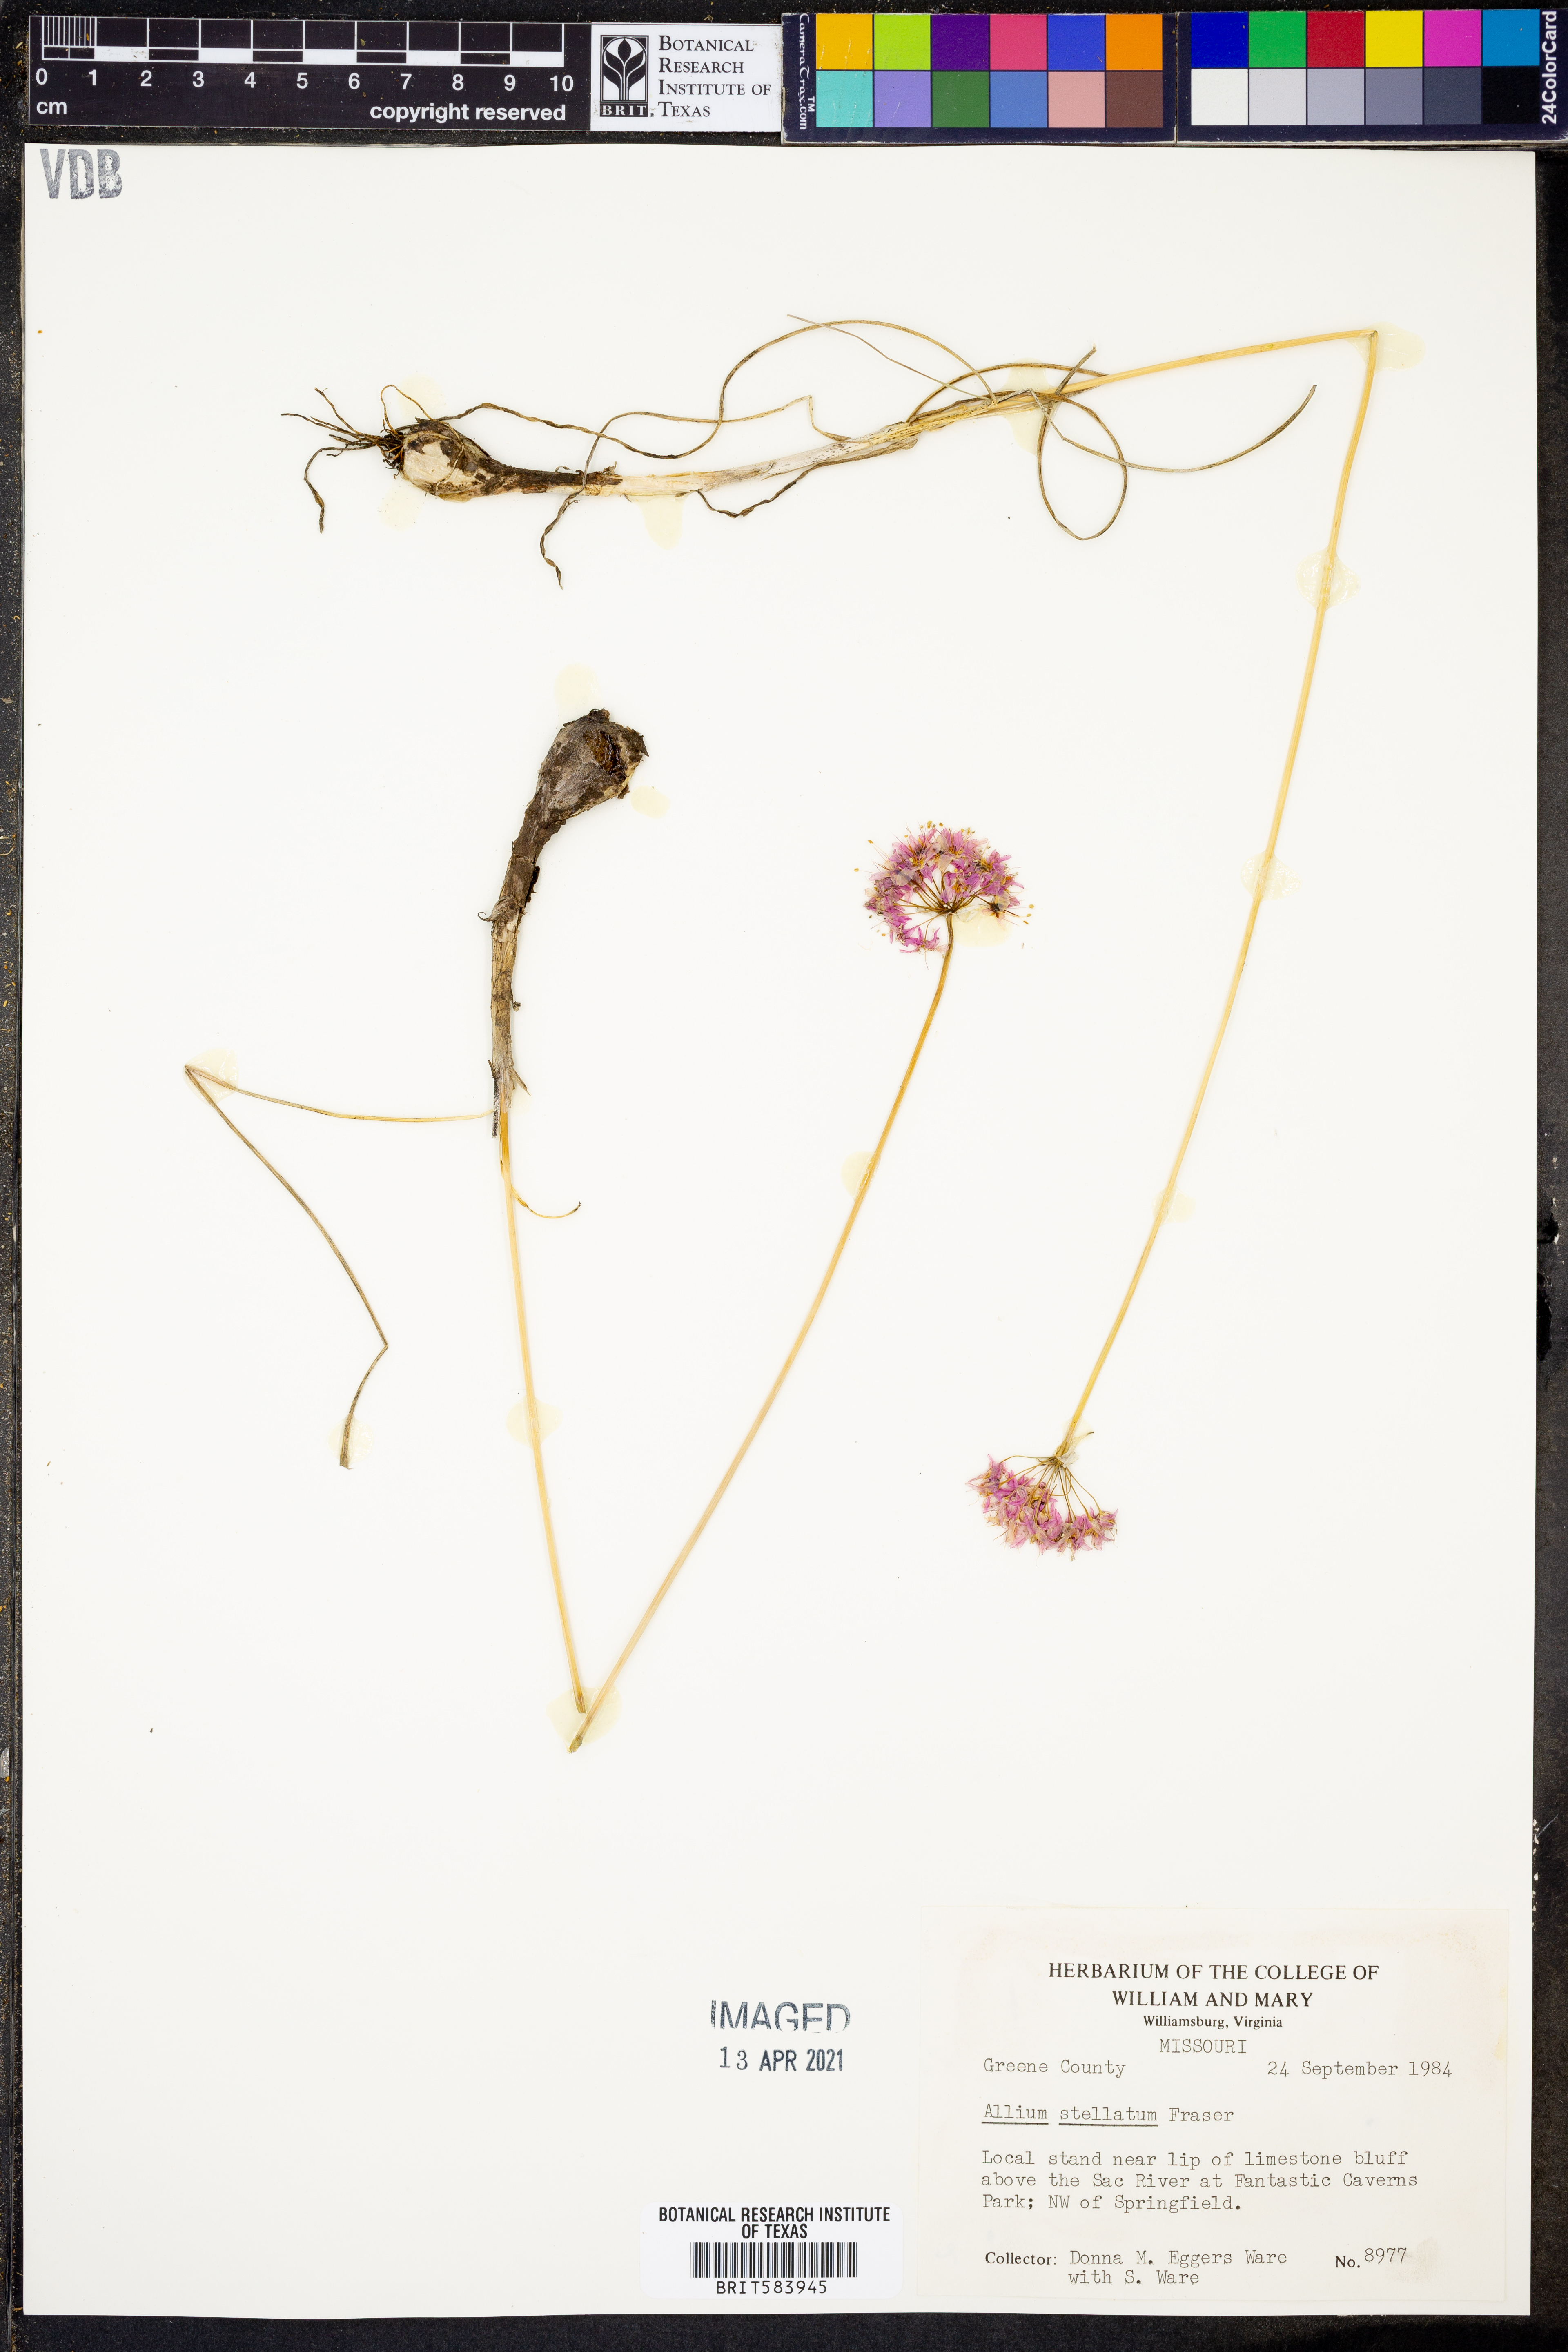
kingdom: Plantae
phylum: Tracheophyta
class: Liliopsida
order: Asparagales
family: Amaryllidaceae
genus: Allium
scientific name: Allium stellatum
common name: Autumn onion
